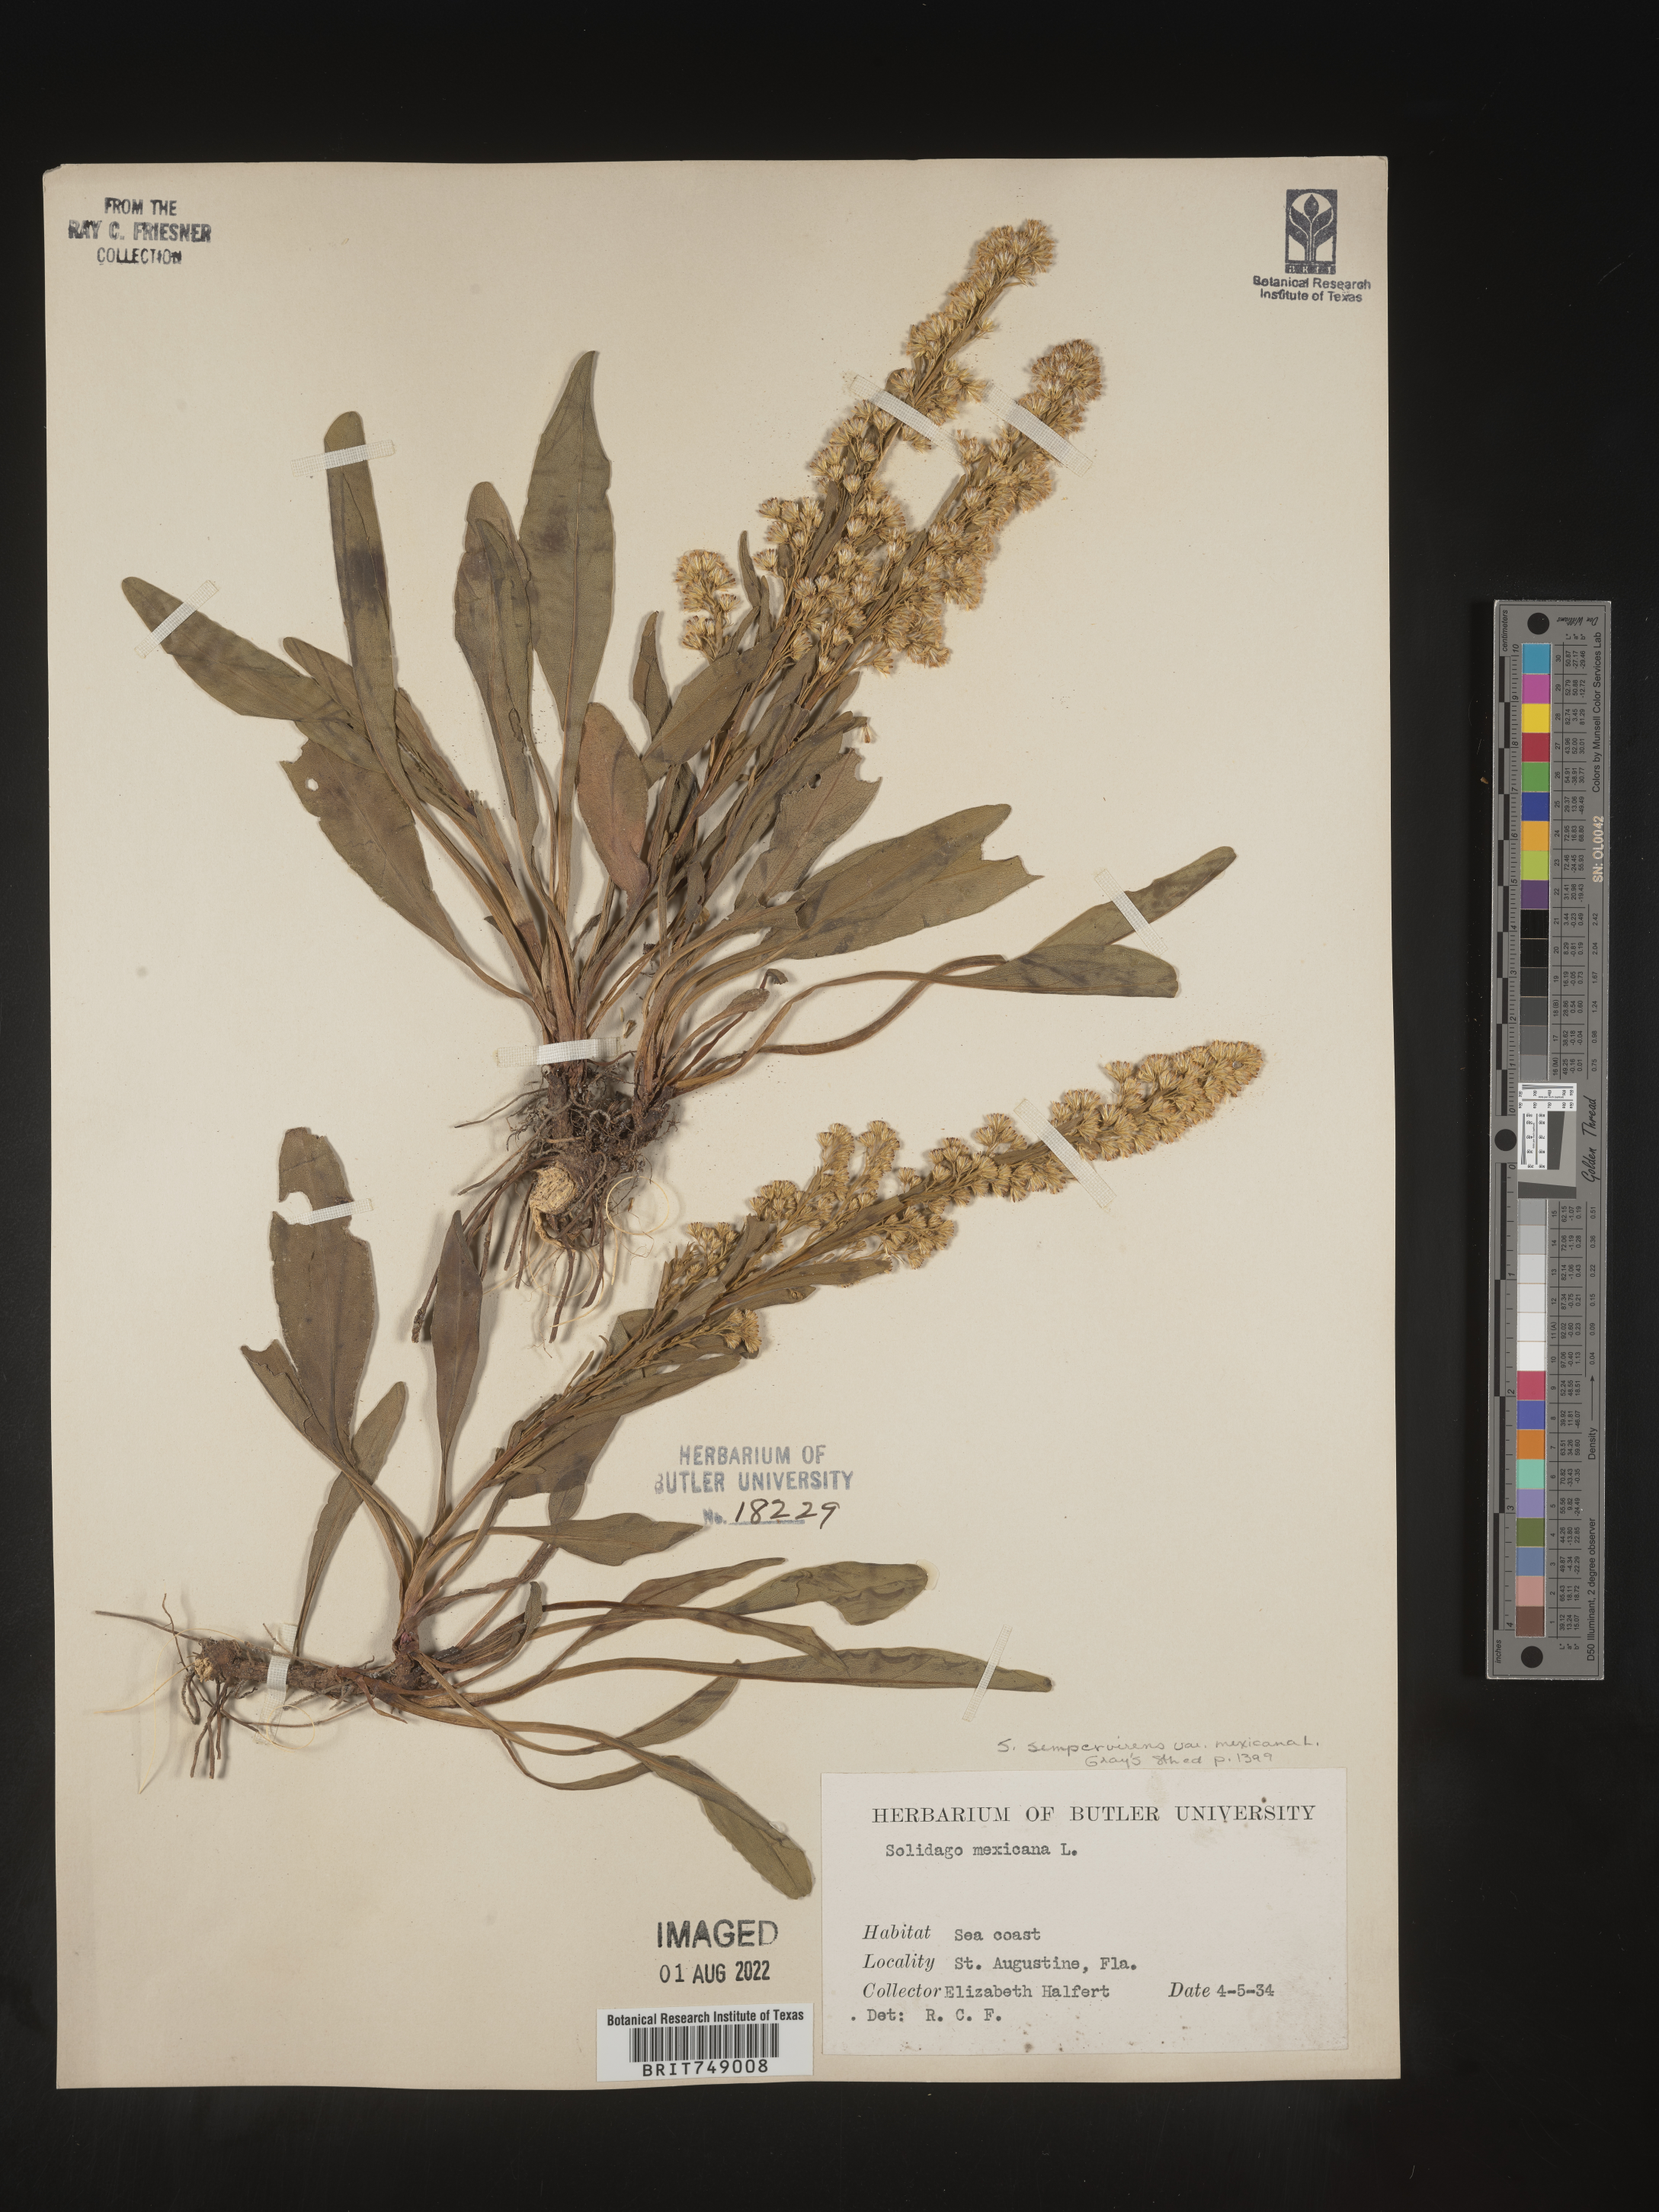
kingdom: Plantae
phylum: Tracheophyta
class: Magnoliopsida
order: Asterales
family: Asteraceae
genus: Solidago
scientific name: Solidago sempervirens
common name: Salt-marsh goldenrod
